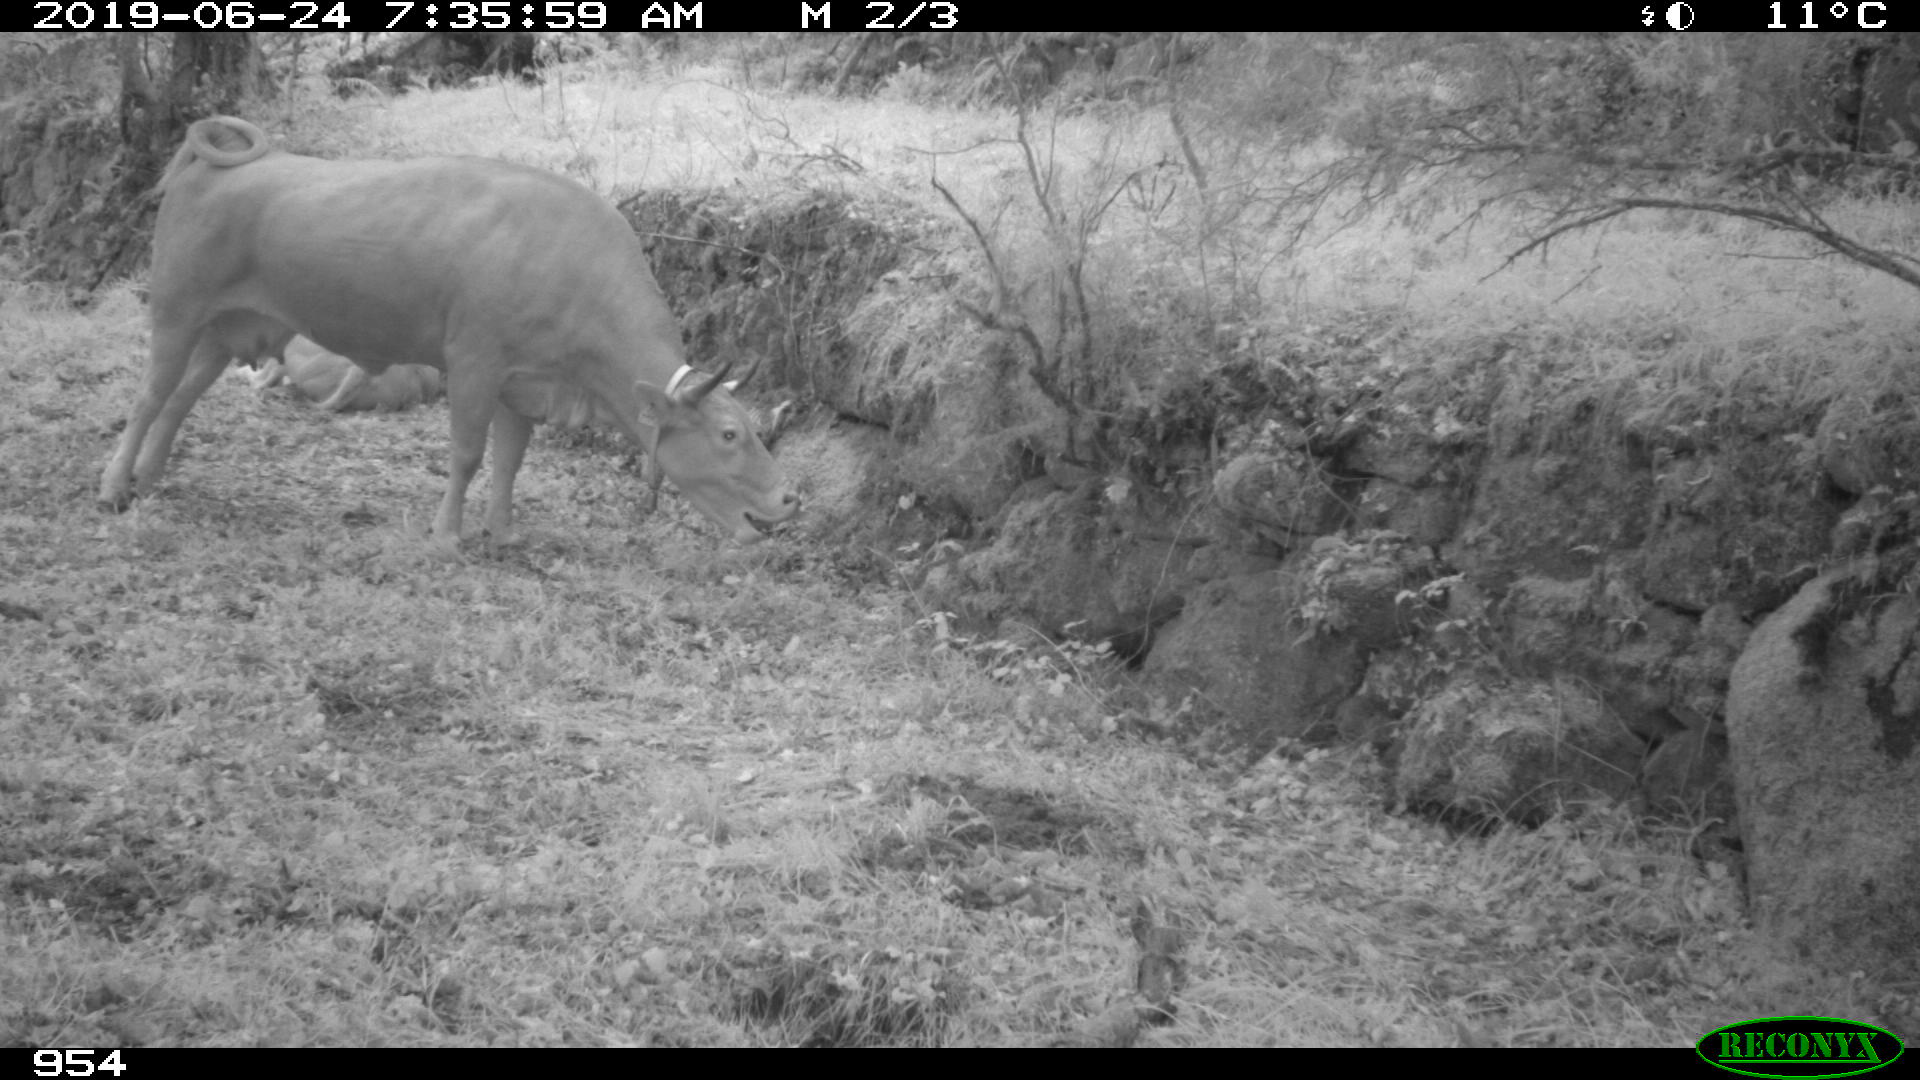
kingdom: Animalia
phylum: Chordata
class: Mammalia
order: Artiodactyla
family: Bovidae
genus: Bos
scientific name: Bos taurus
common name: Domesticated cattle
